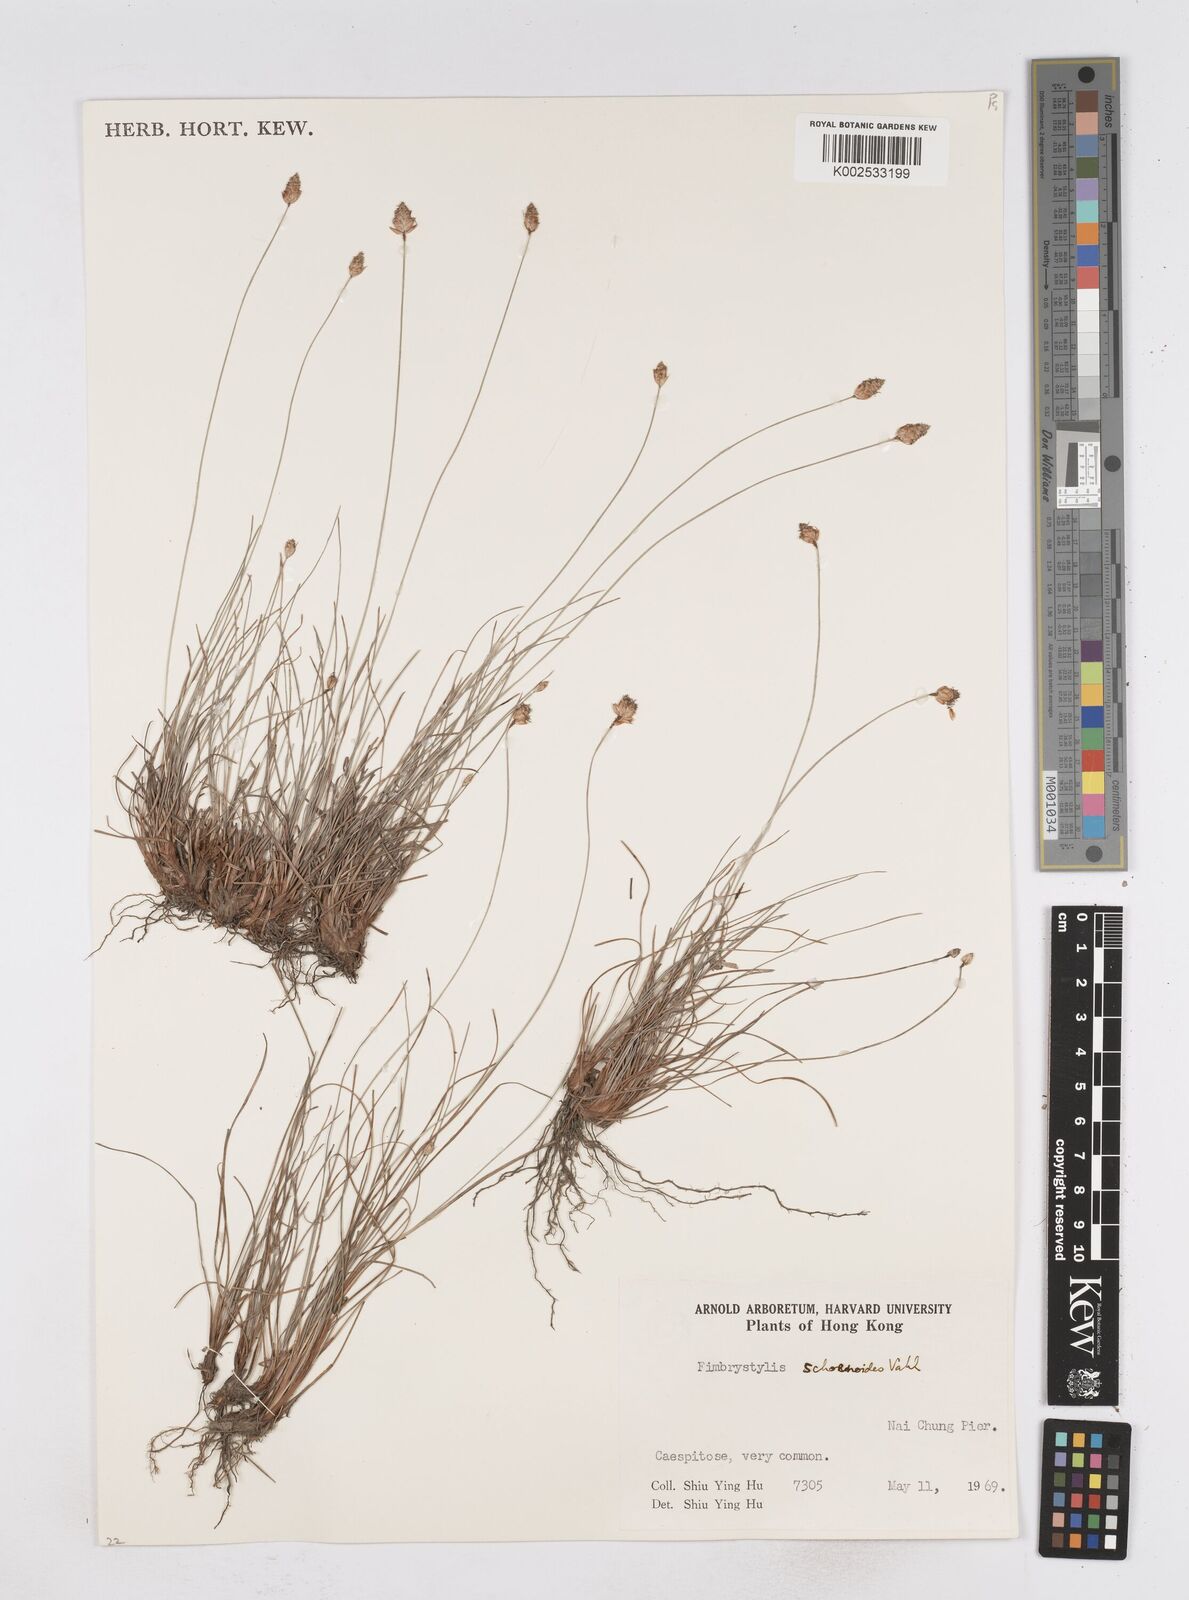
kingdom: Plantae
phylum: Tracheophyta
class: Liliopsida
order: Poales
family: Cyperaceae
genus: Fimbristylis
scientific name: Fimbristylis schoenoides
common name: Ditch fimbry
